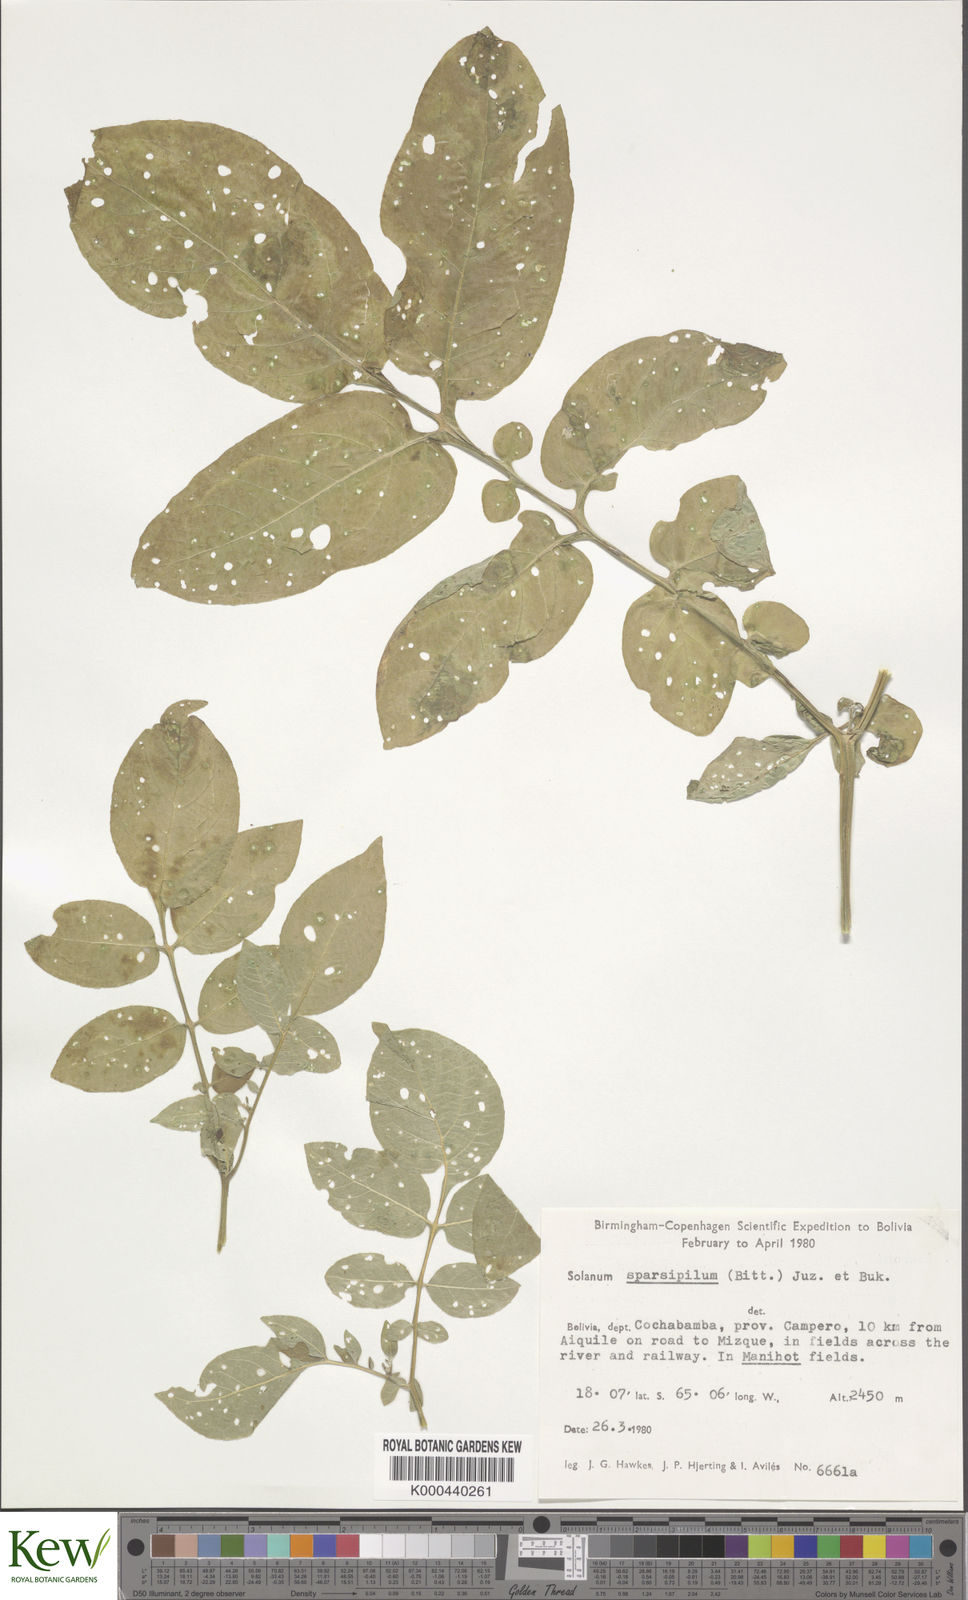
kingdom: Plantae
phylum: Tracheophyta
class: Magnoliopsida
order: Solanales
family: Solanaceae
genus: Solanum
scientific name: Solanum brevicaule
